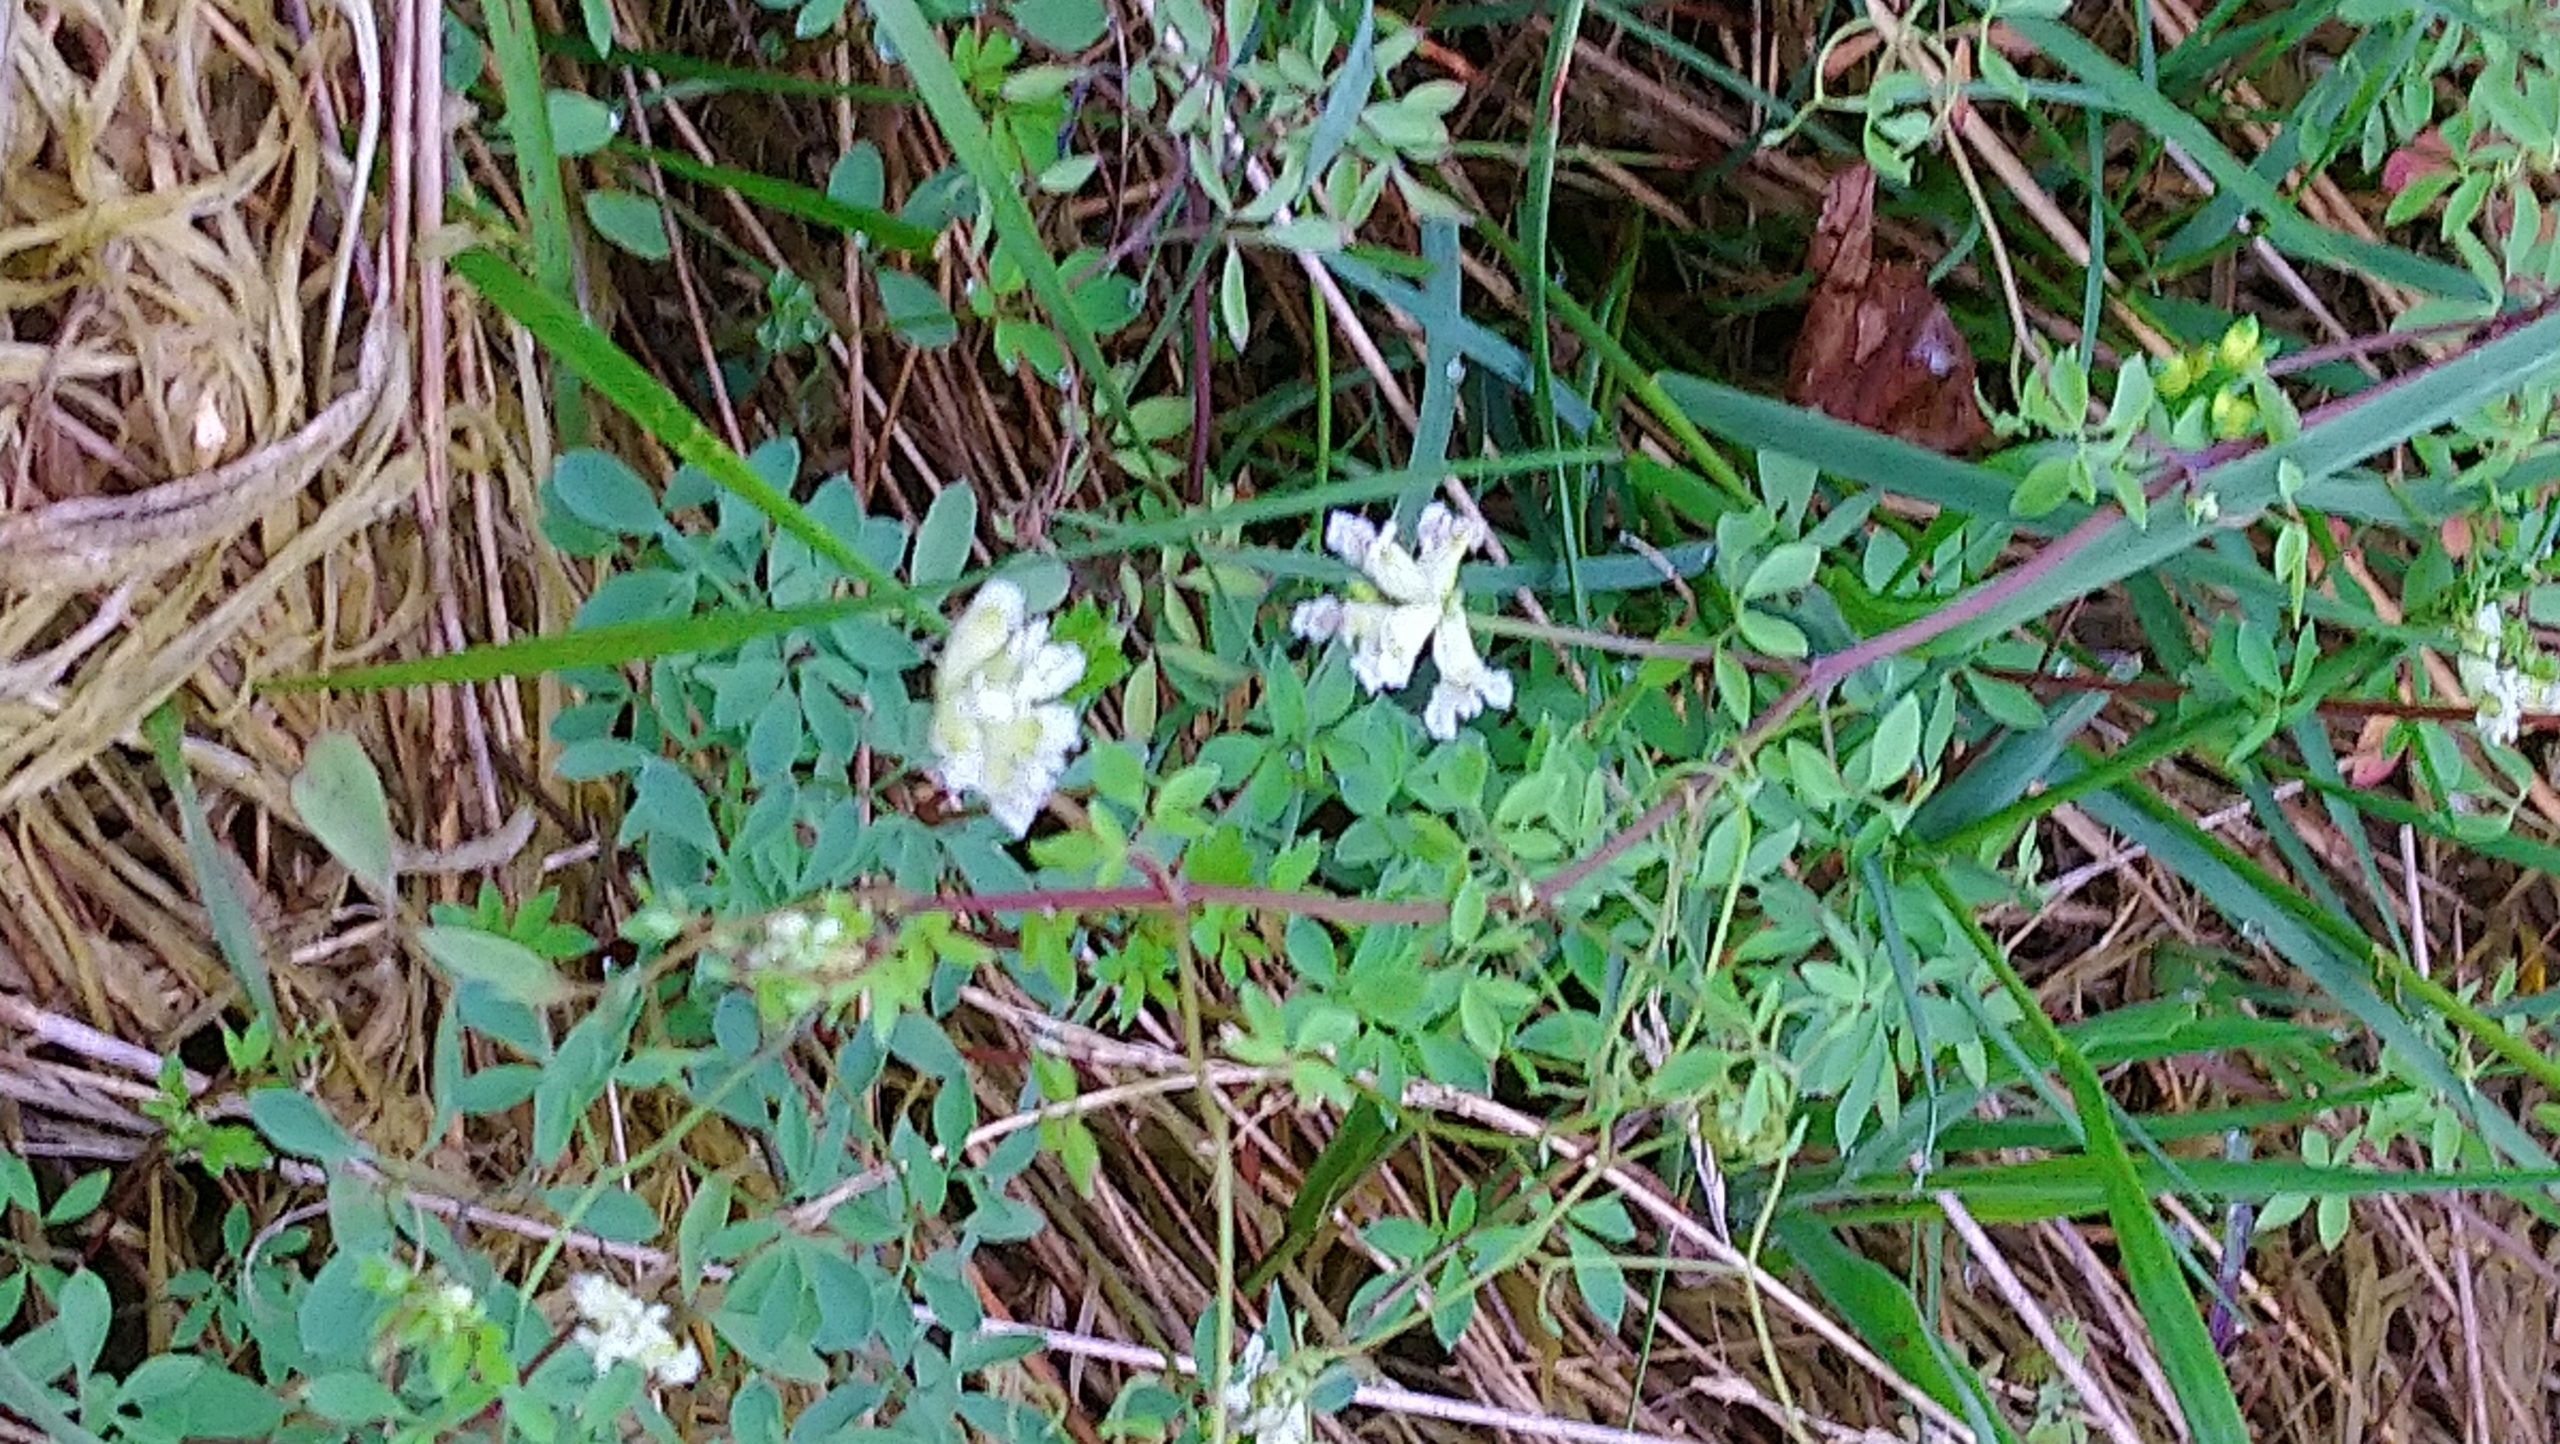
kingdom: Plantae
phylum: Tracheophyta
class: Magnoliopsida
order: Ranunculales
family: Papaveraceae
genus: Ceratocapnos
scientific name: Ceratocapnos claviculata
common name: Klatrende lærkespore
